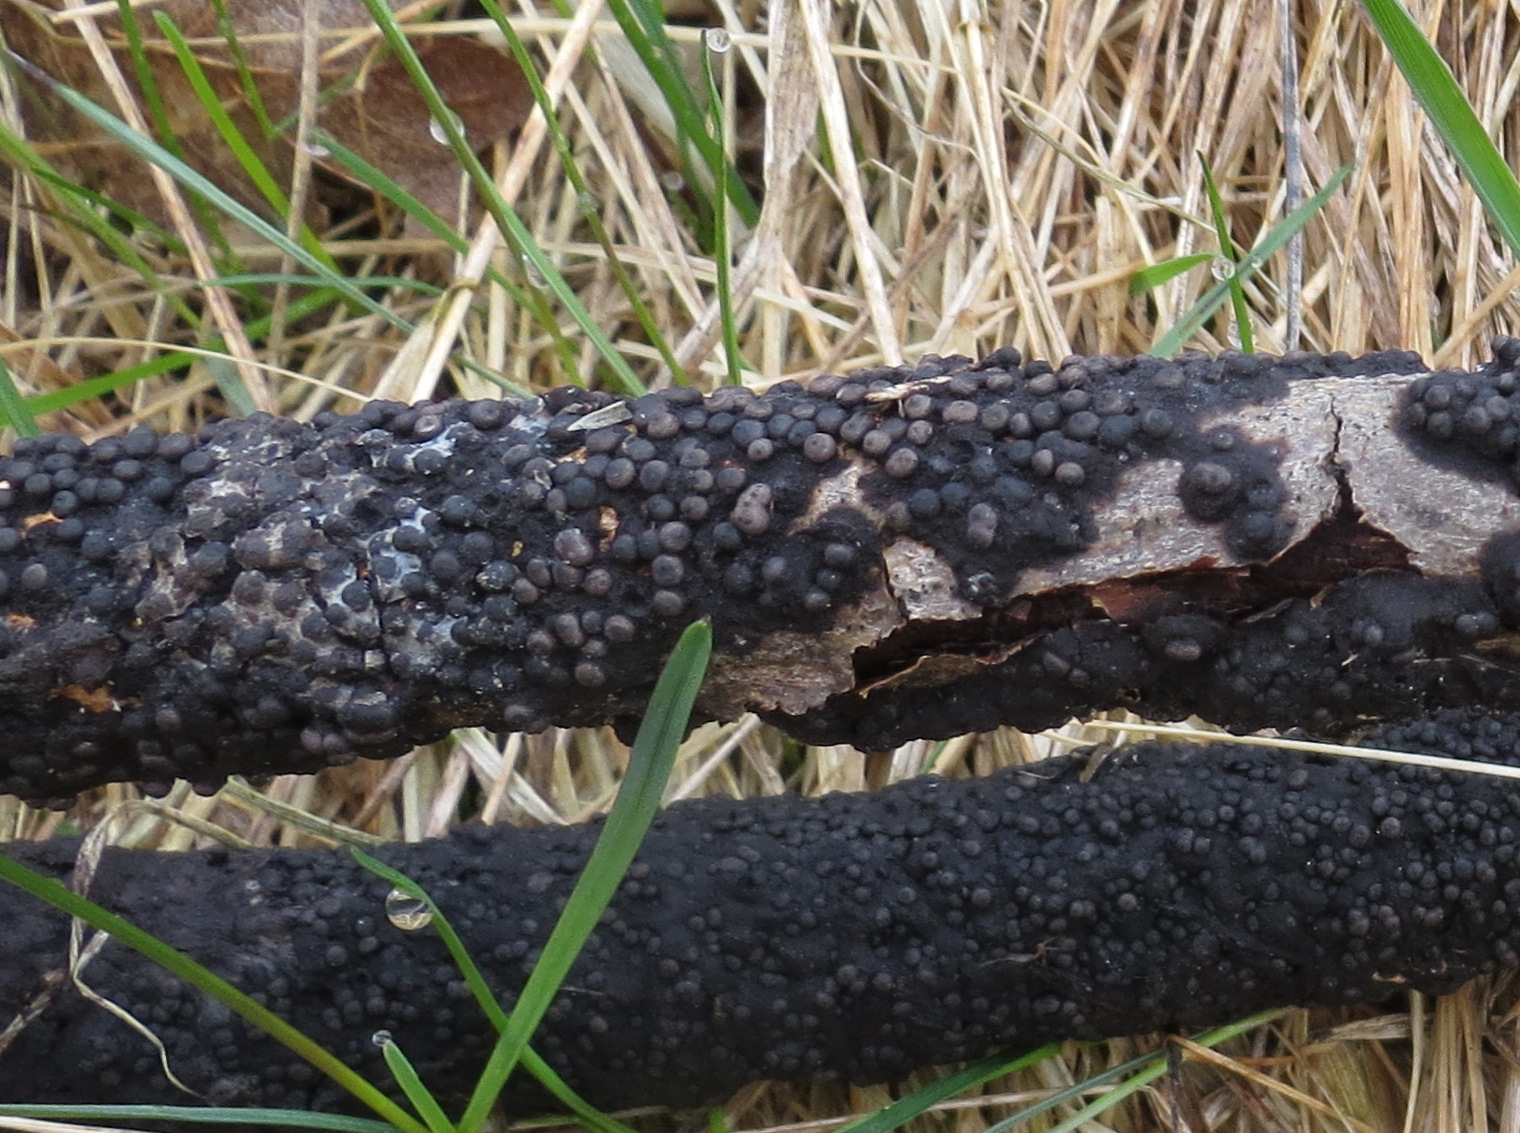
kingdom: Fungi
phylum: Ascomycota
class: Sordariomycetes
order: Xylariales
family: Xylariaceae
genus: Rosellinia
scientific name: Rosellinia
